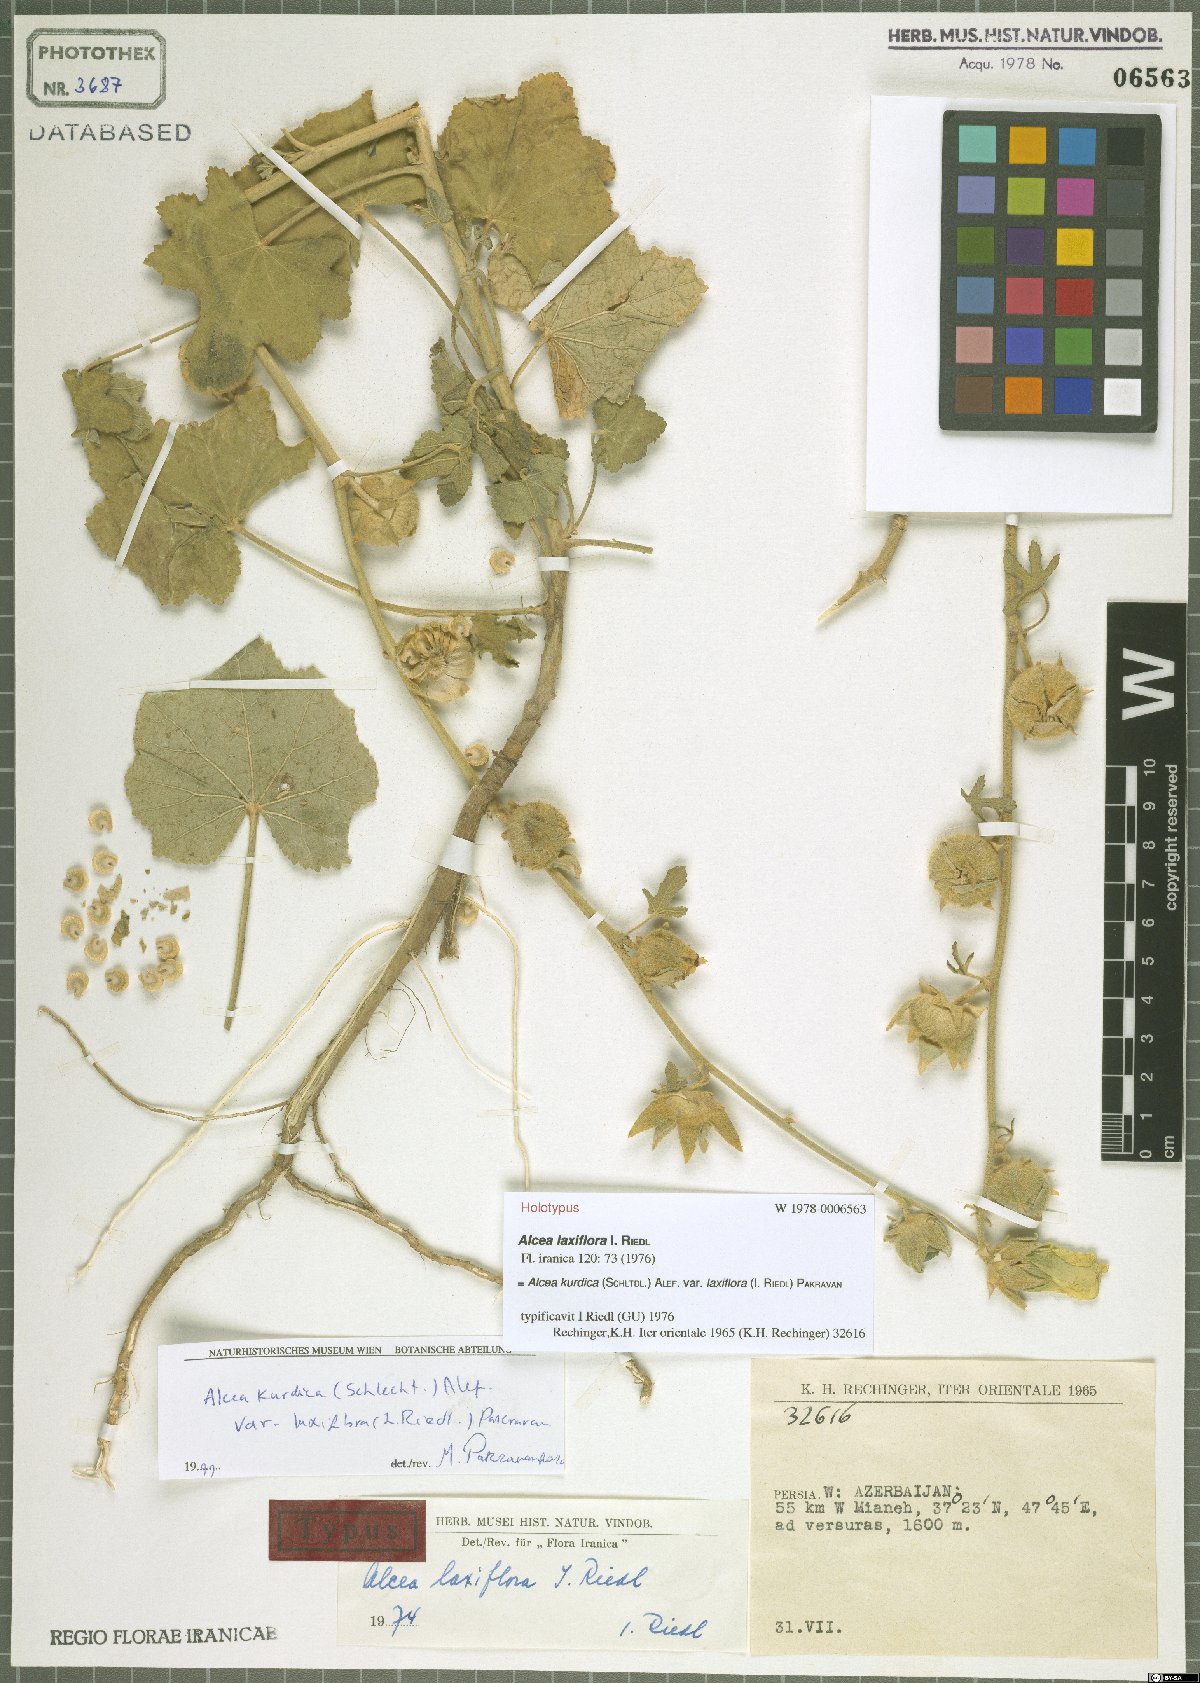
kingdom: Plantae
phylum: Tracheophyta
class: Magnoliopsida
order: Malvales
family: Malvaceae
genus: Alcea
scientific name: Alcea kurdica
